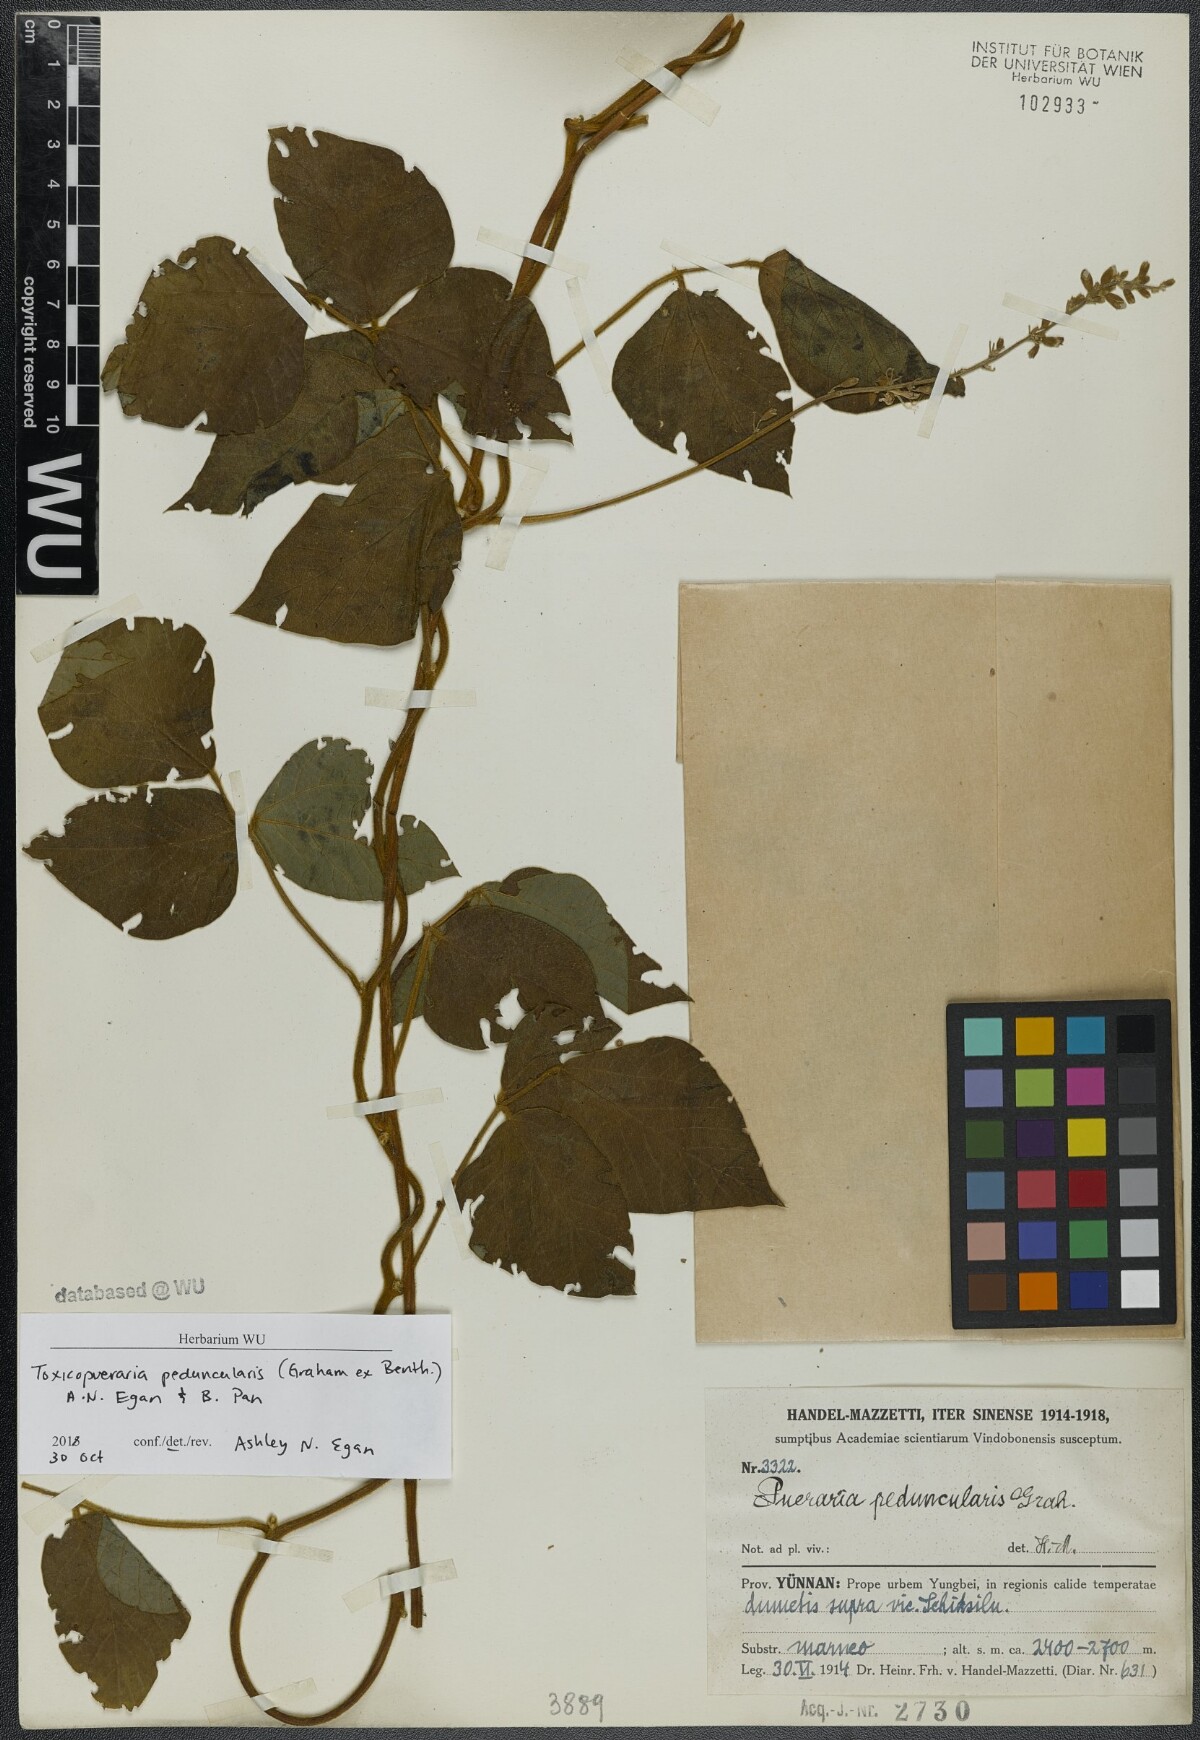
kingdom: Plantae
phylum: Tracheophyta
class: Magnoliopsida
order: Fabales
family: Fabaceae
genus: Toxicopueraria
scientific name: Toxicopueraria peduncularis
